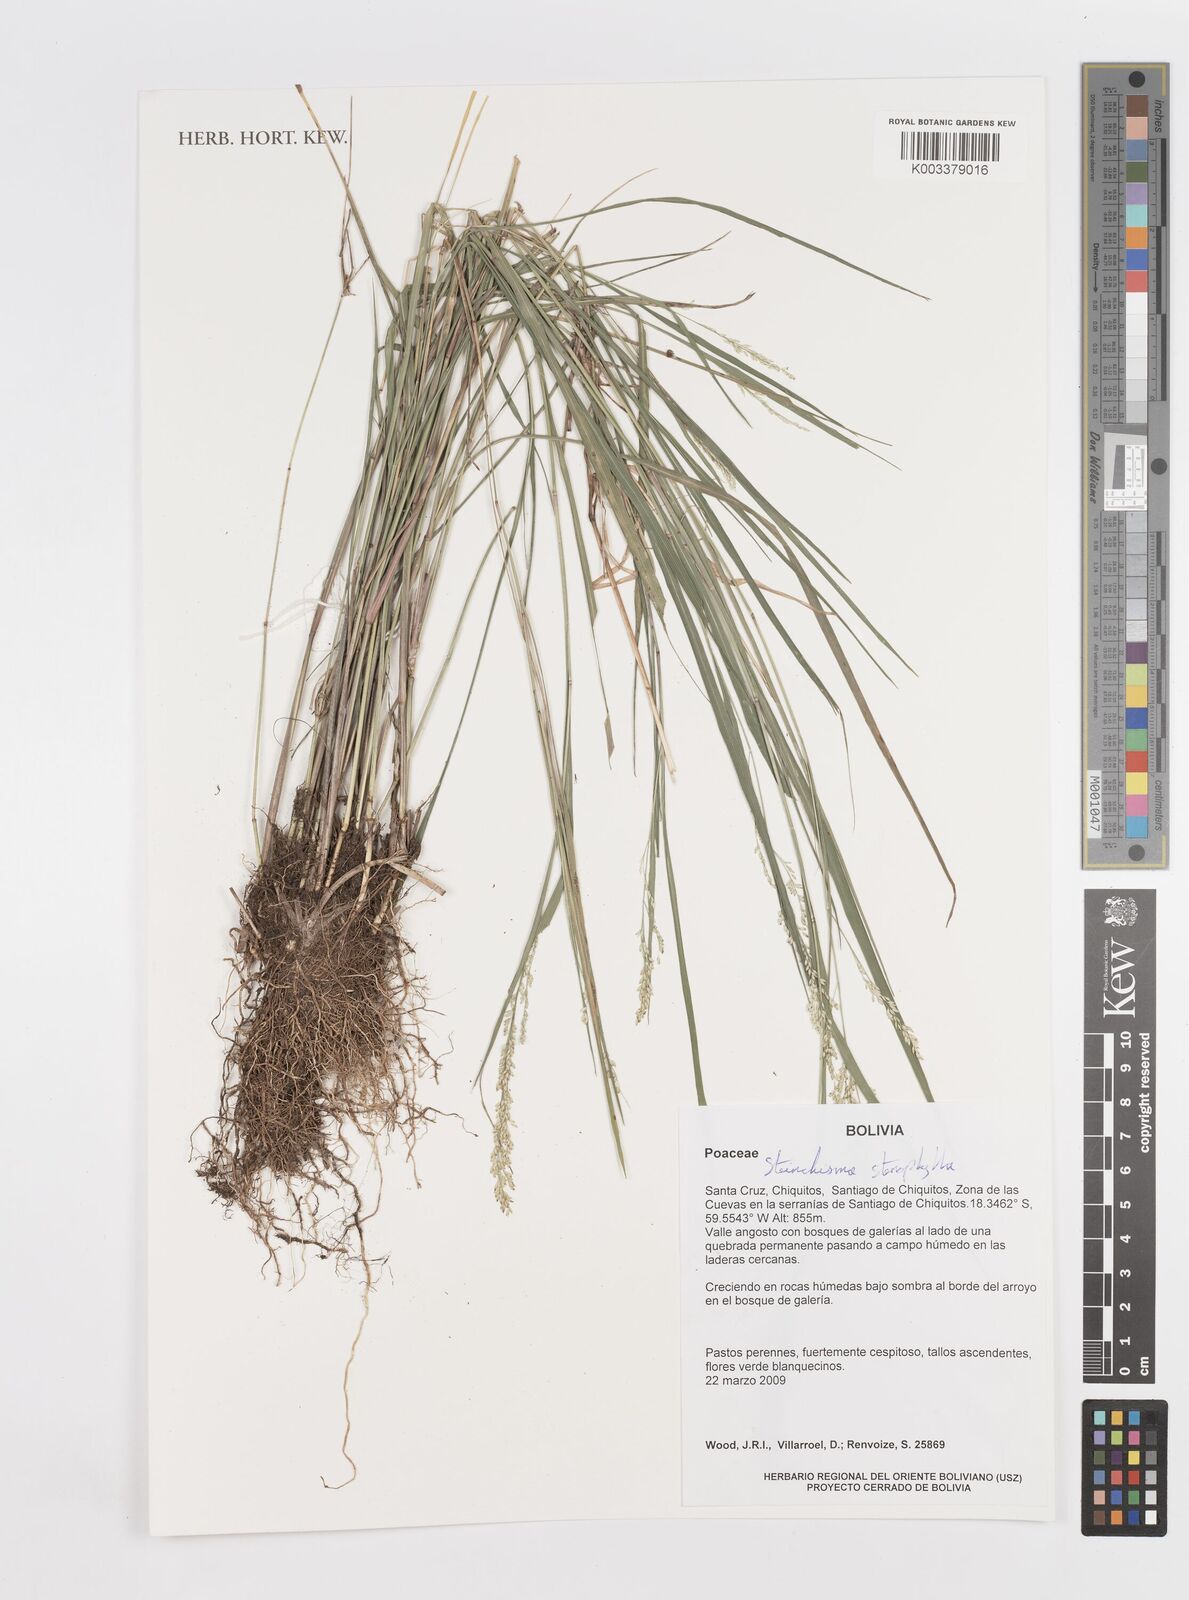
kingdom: Plantae
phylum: Tracheophyta
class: Liliopsida
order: Poales
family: Poaceae
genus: Steinchisma
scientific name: Steinchisma stenophyllum
